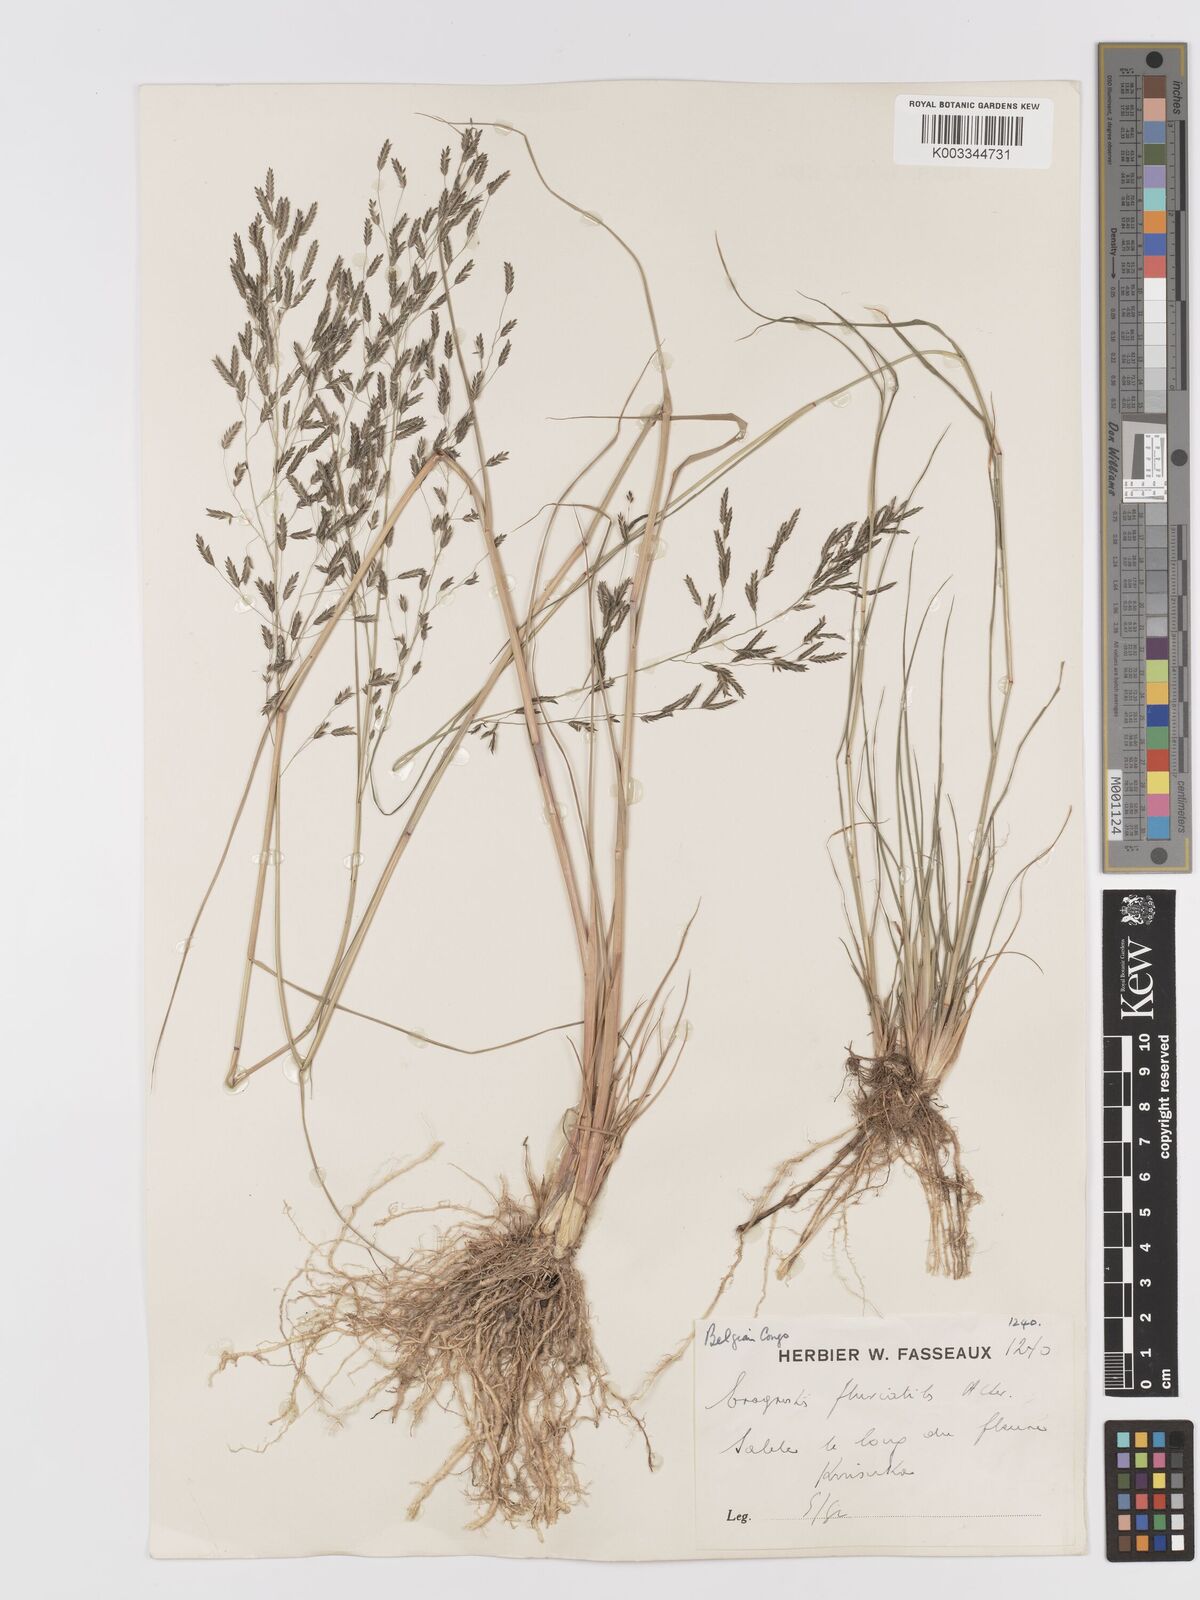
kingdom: Plantae
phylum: Tracheophyta
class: Liliopsida
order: Poales
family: Poaceae
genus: Eragrostis
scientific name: Eragrostis barteri
